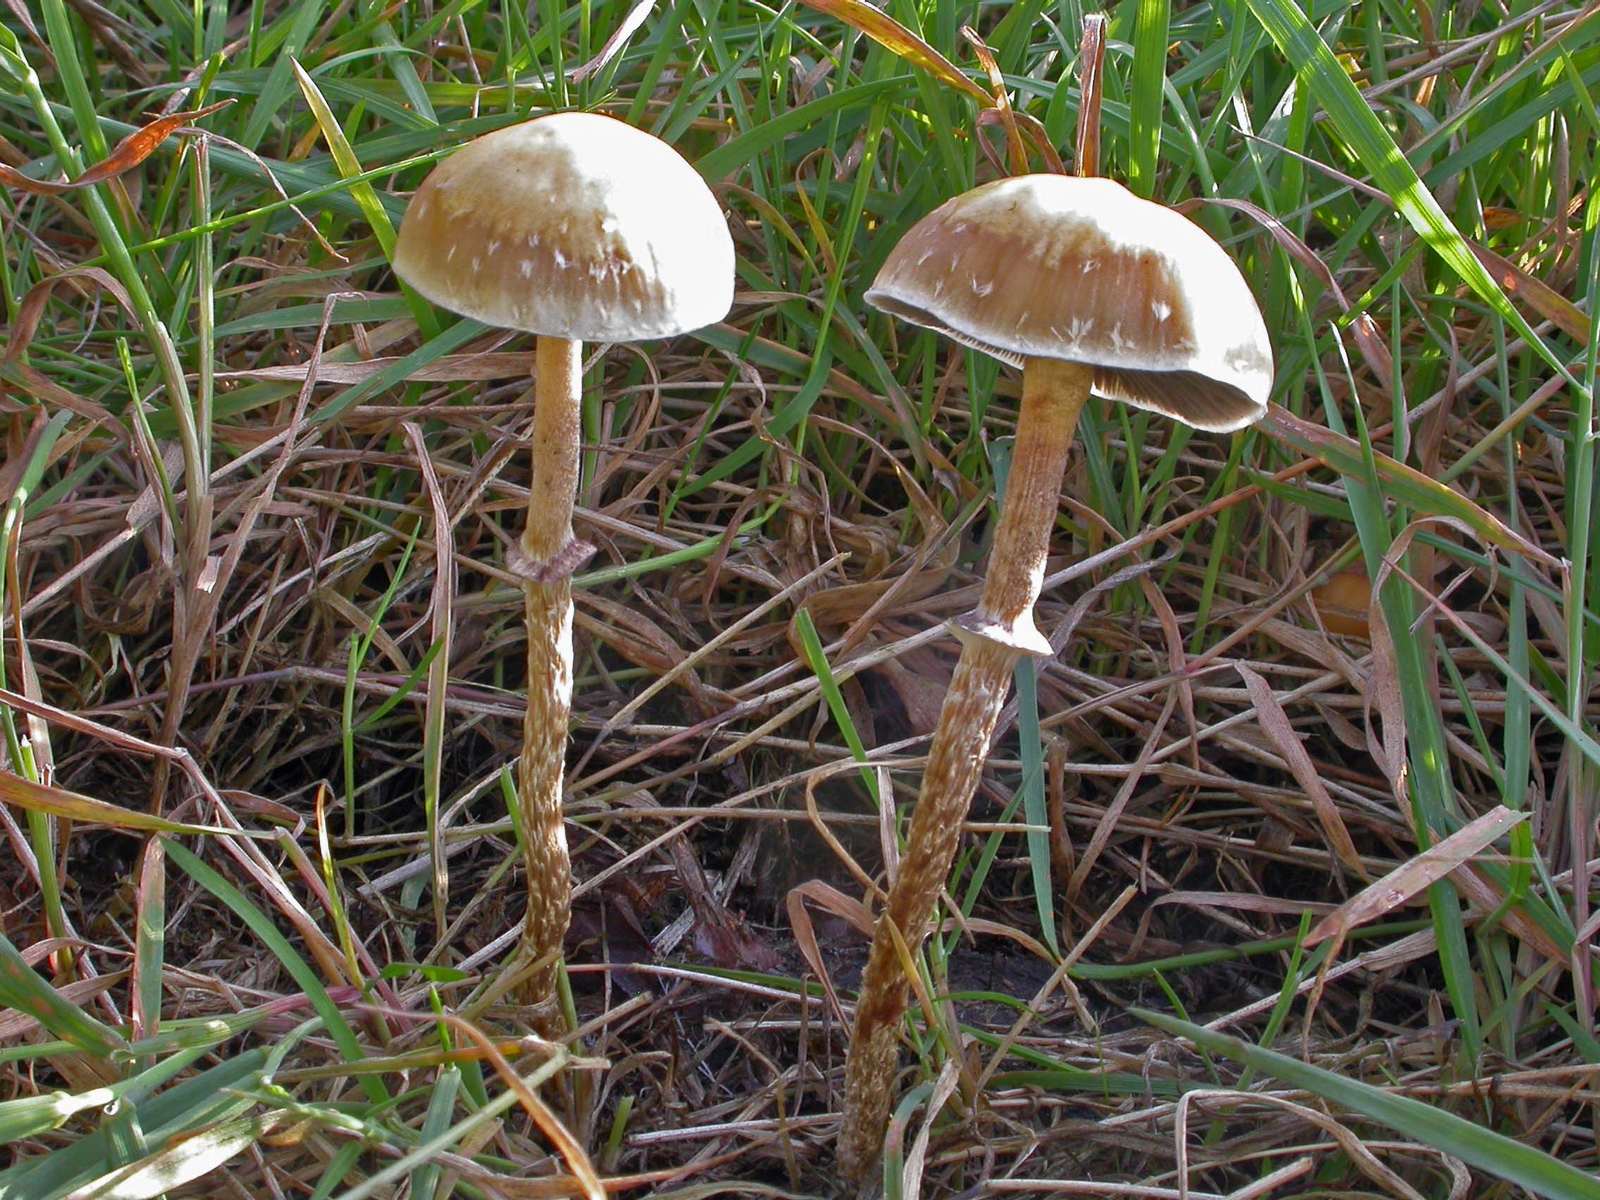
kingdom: Fungi
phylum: Basidiomycota
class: Agaricomycetes
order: Agaricales
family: Strophariaceae
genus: Leratiomyces
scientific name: Leratiomyces squamosus
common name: skællet bredblad
